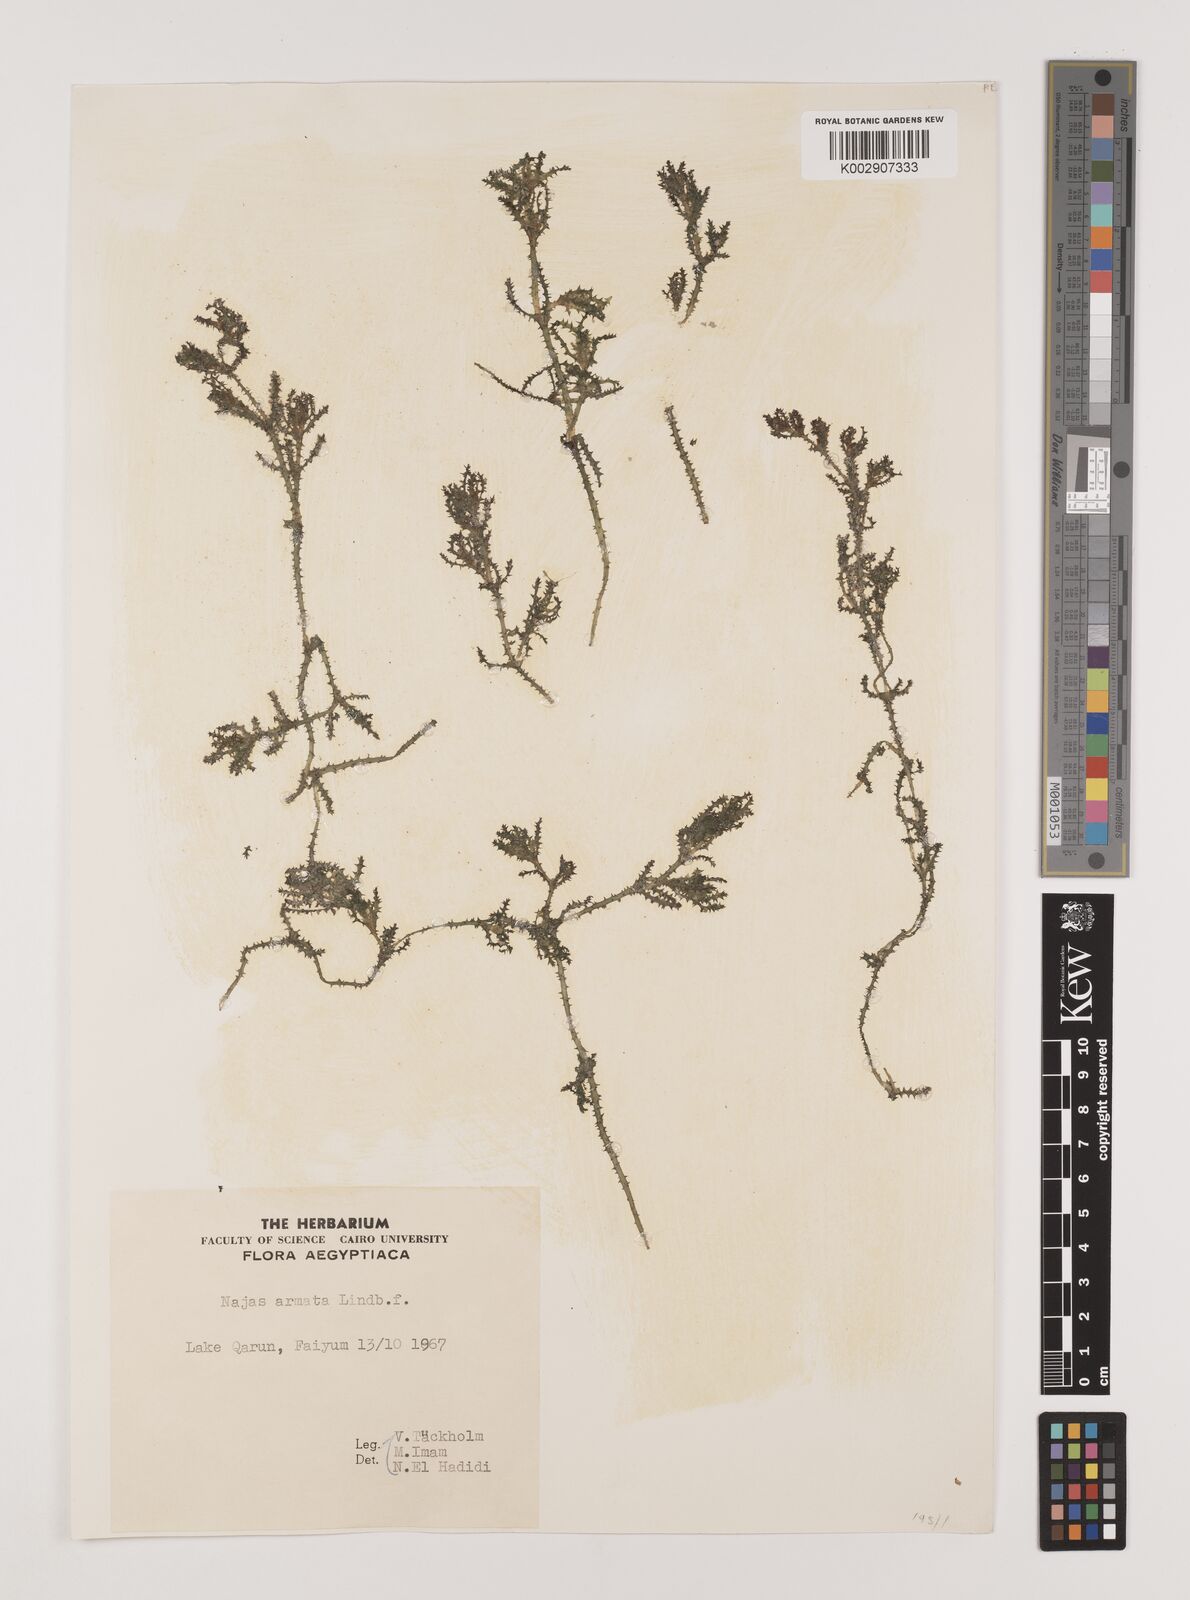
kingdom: Plantae
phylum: Tracheophyta
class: Liliopsida
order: Alismatales
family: Hydrocharitaceae
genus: Najas
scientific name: Najas marina
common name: Holly-leaved naiad
